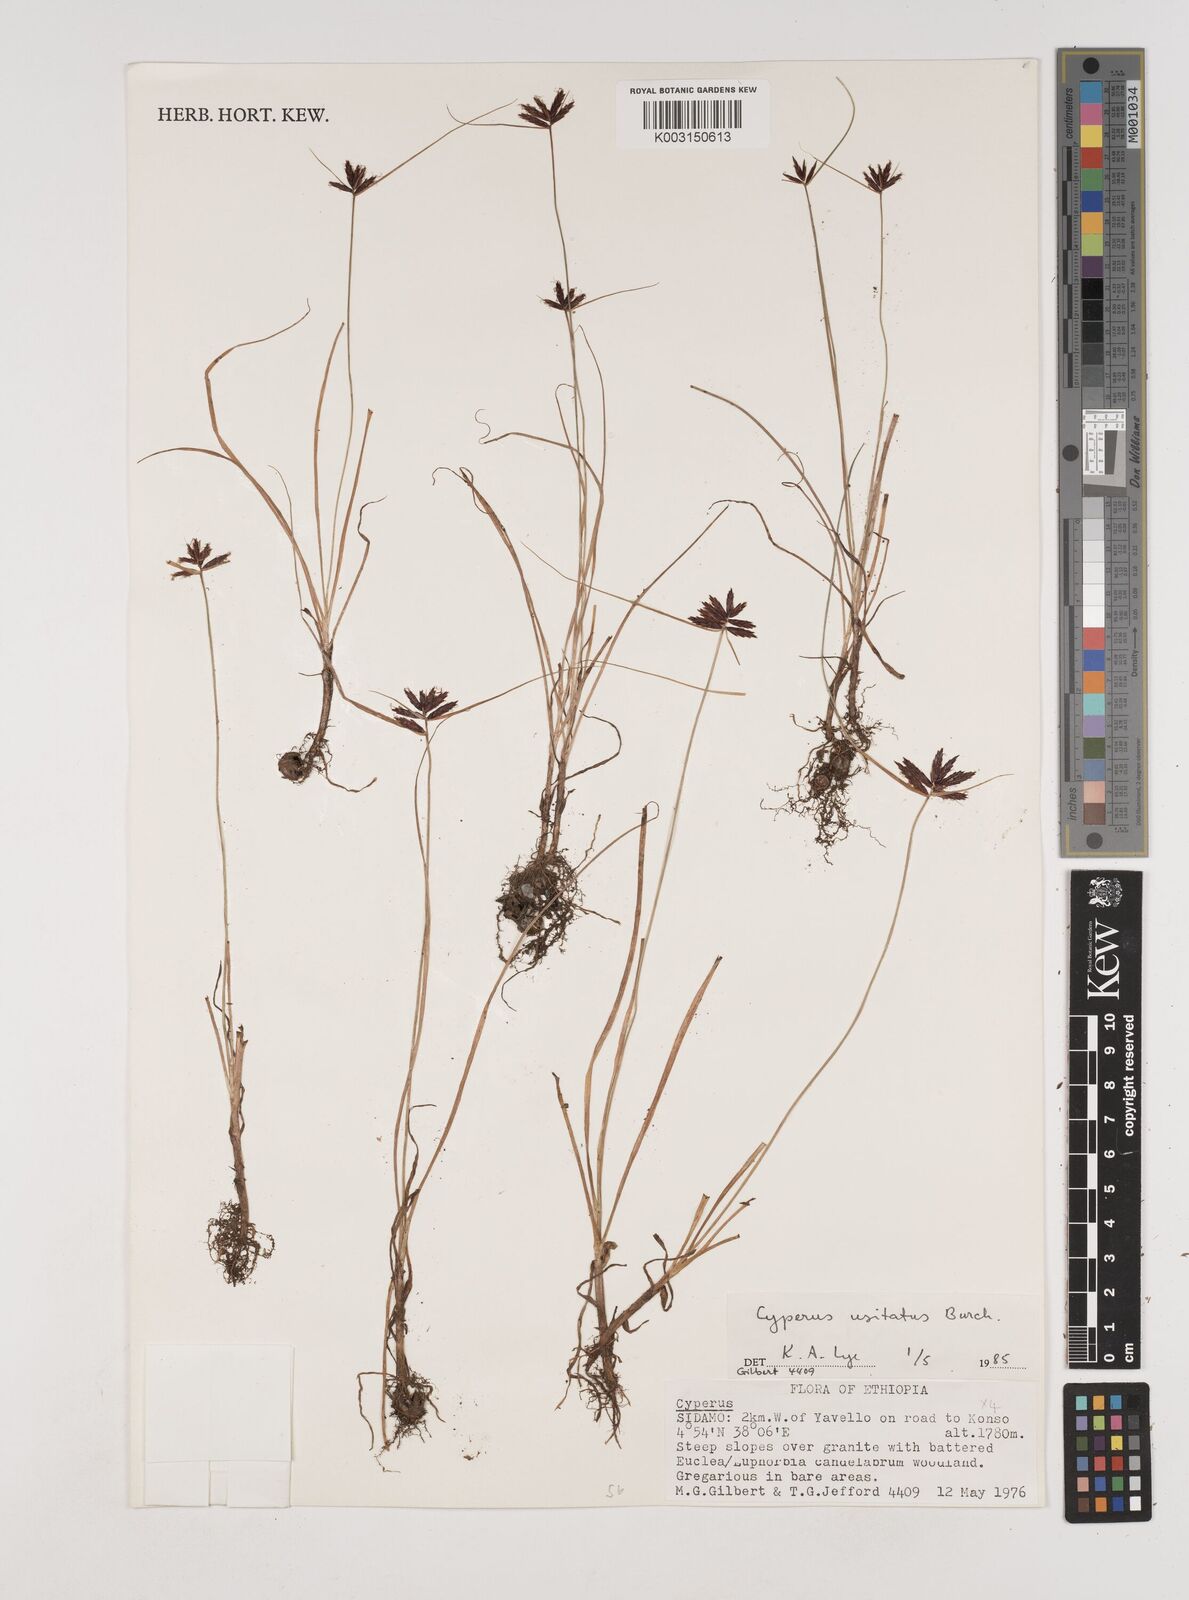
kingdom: Plantae
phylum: Tracheophyta
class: Liliopsida
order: Poales
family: Cyperaceae
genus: Cyperus
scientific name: Cyperus usitatus
